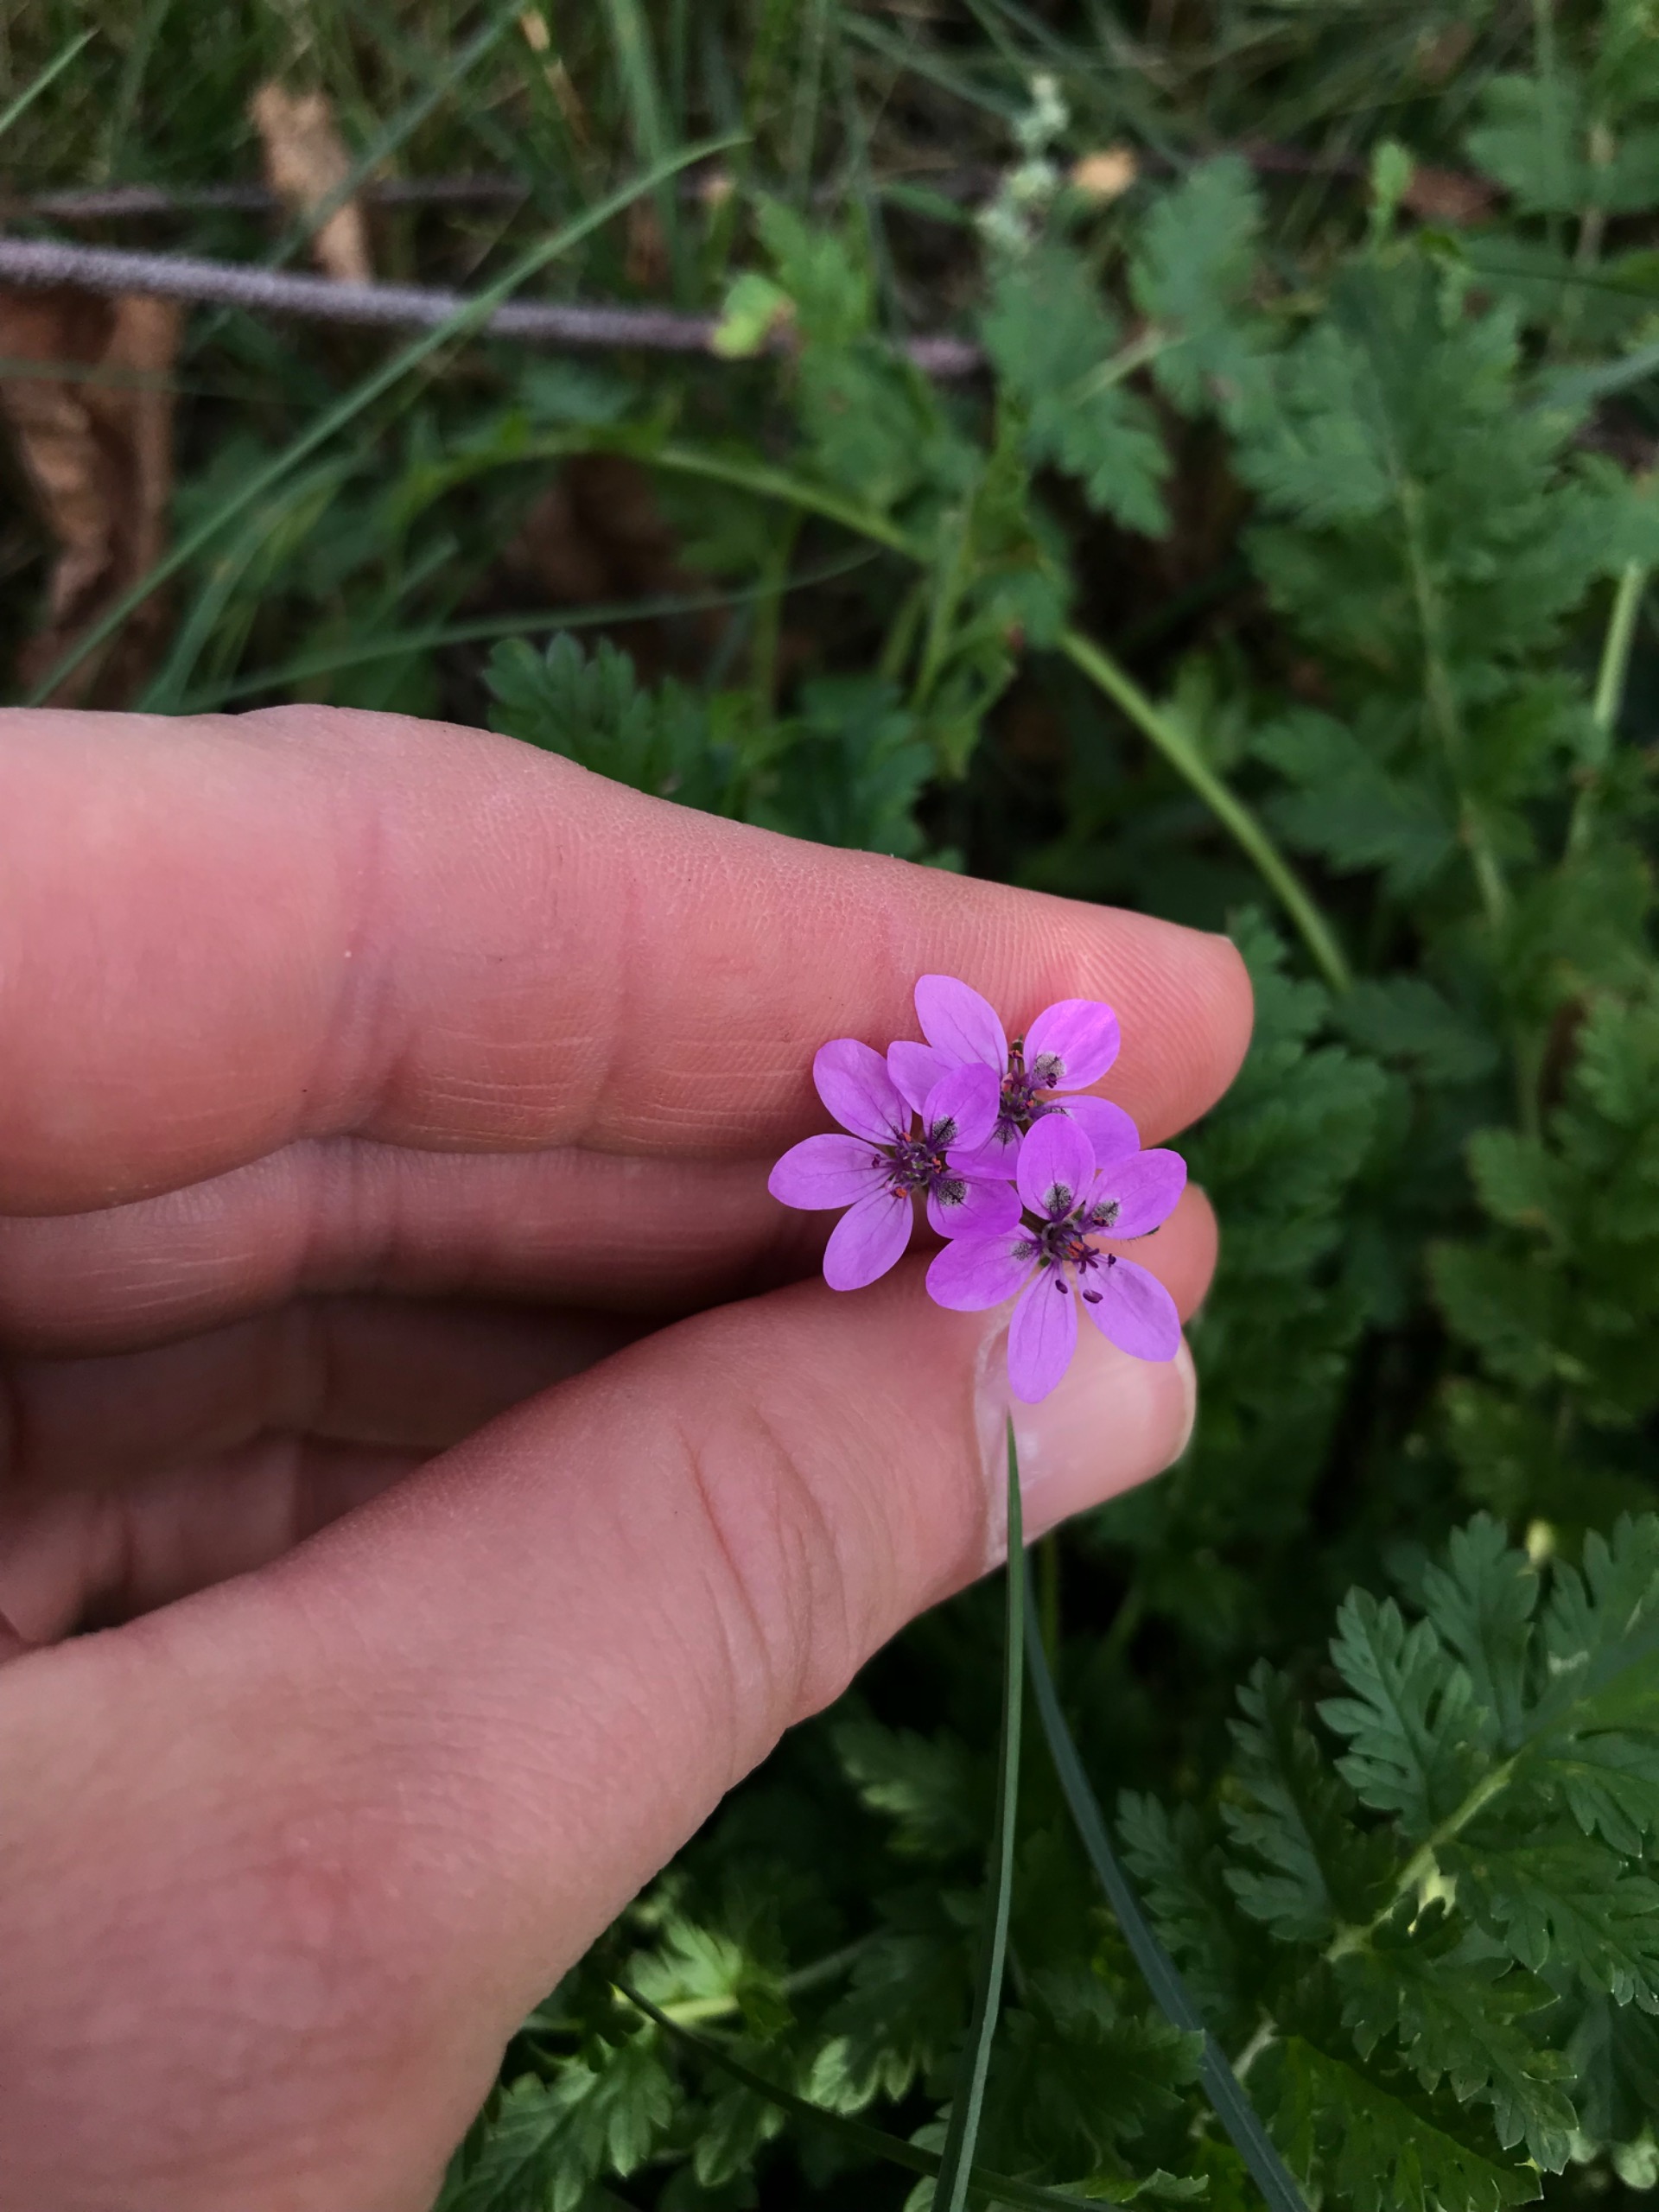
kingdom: Plantae
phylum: Tracheophyta
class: Magnoliopsida
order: Geraniales
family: Geraniaceae
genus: Erodium
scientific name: Erodium cicutarium
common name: Hejrenæb
